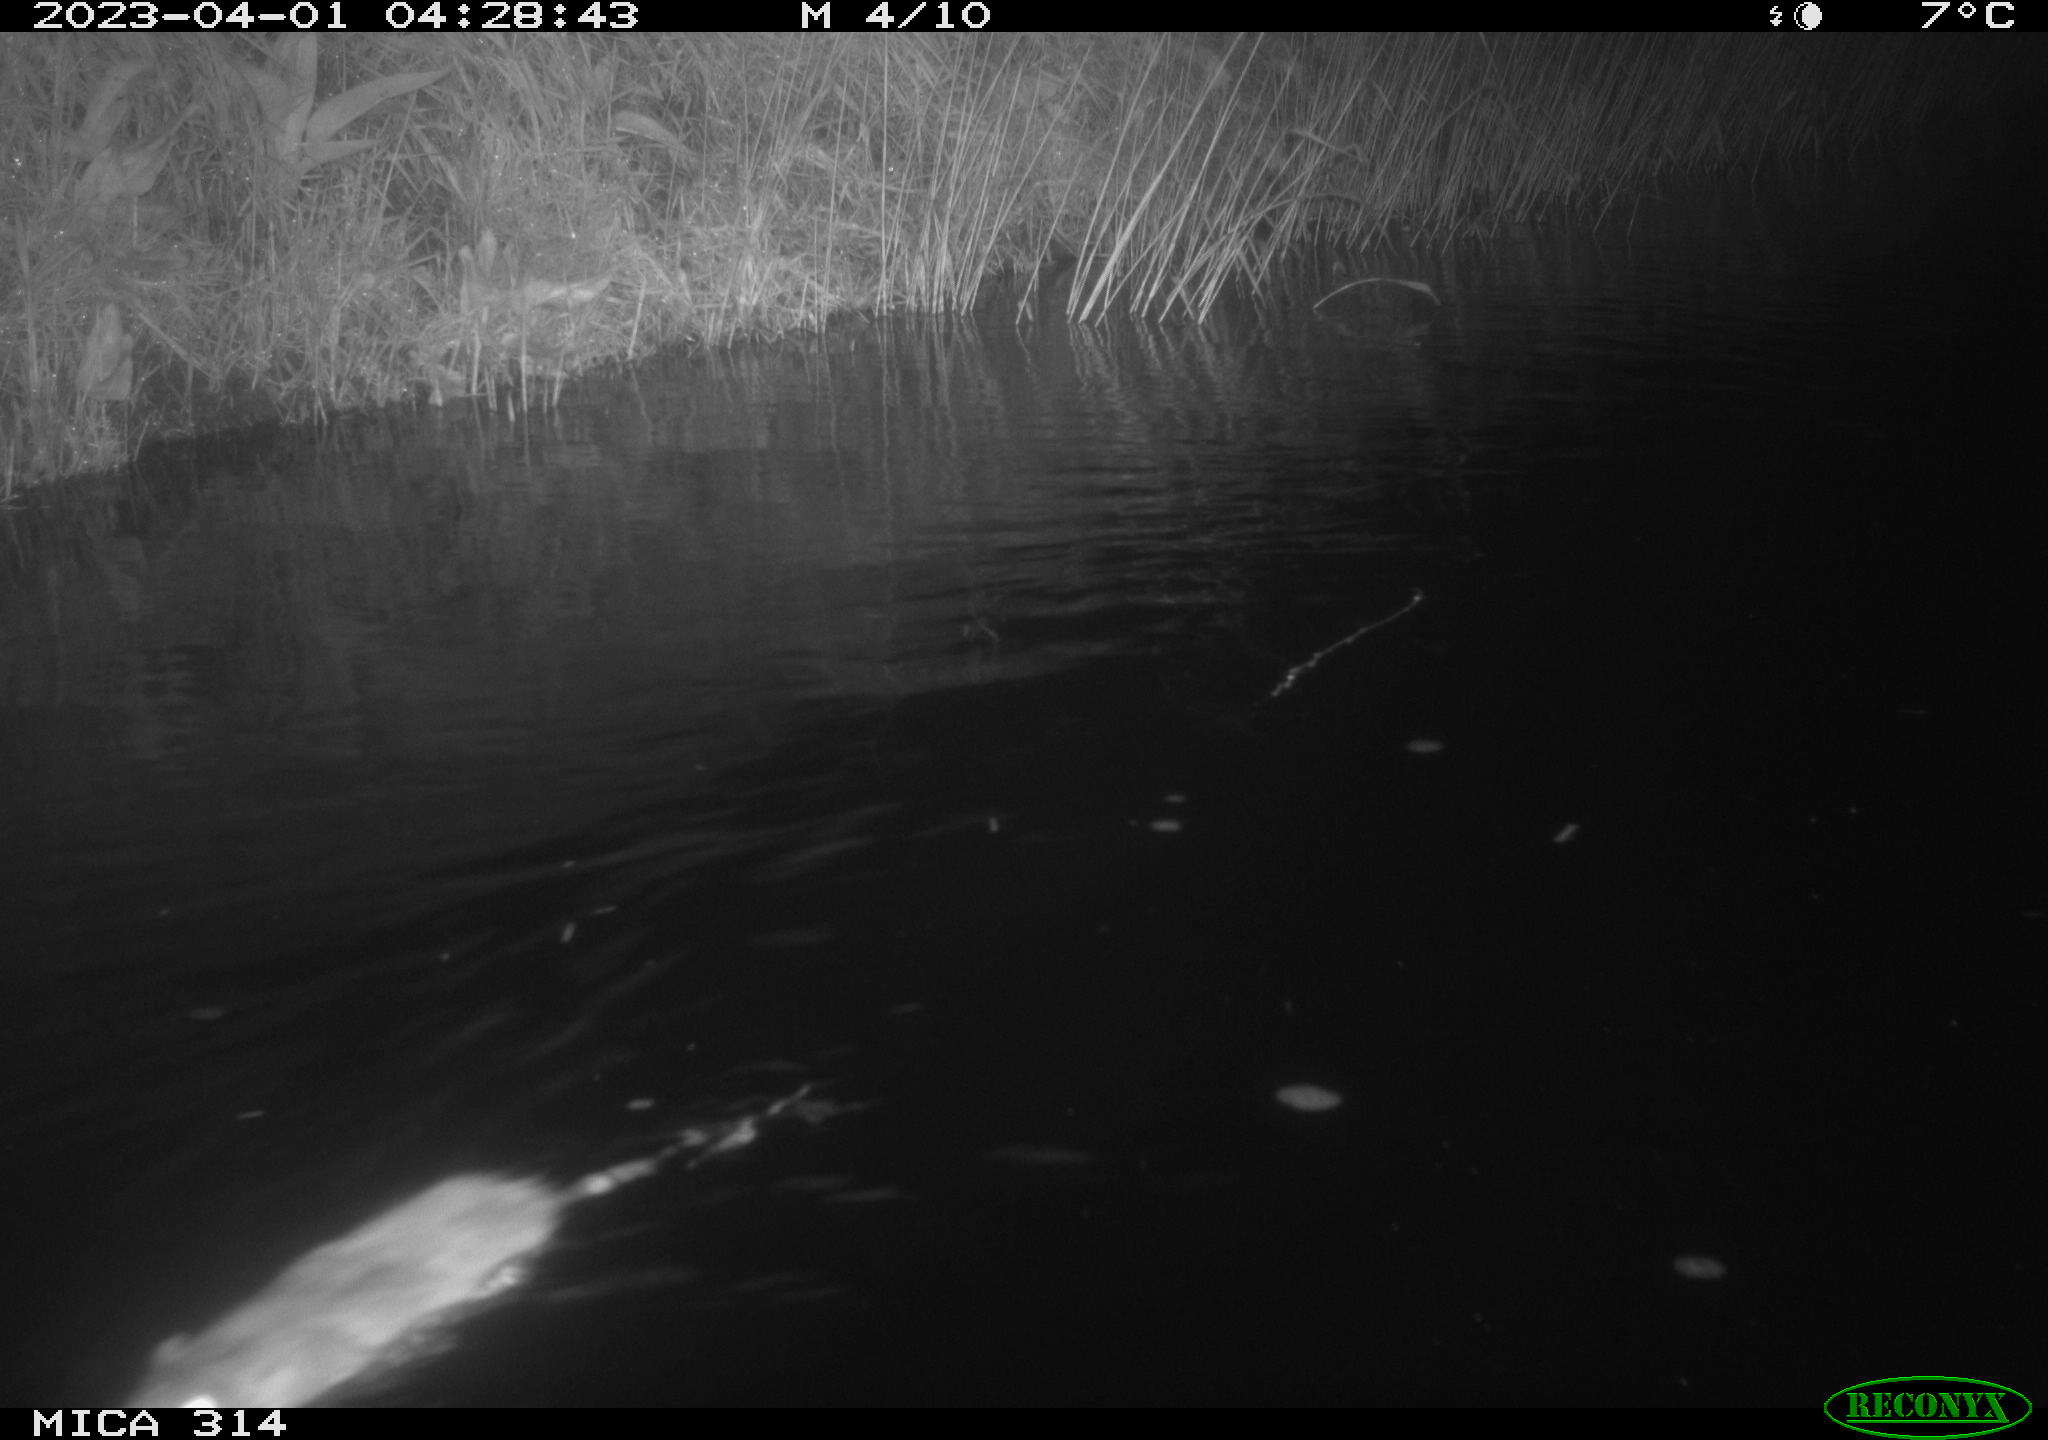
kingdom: Animalia
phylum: Chordata
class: Mammalia
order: Rodentia
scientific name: Rodentia
